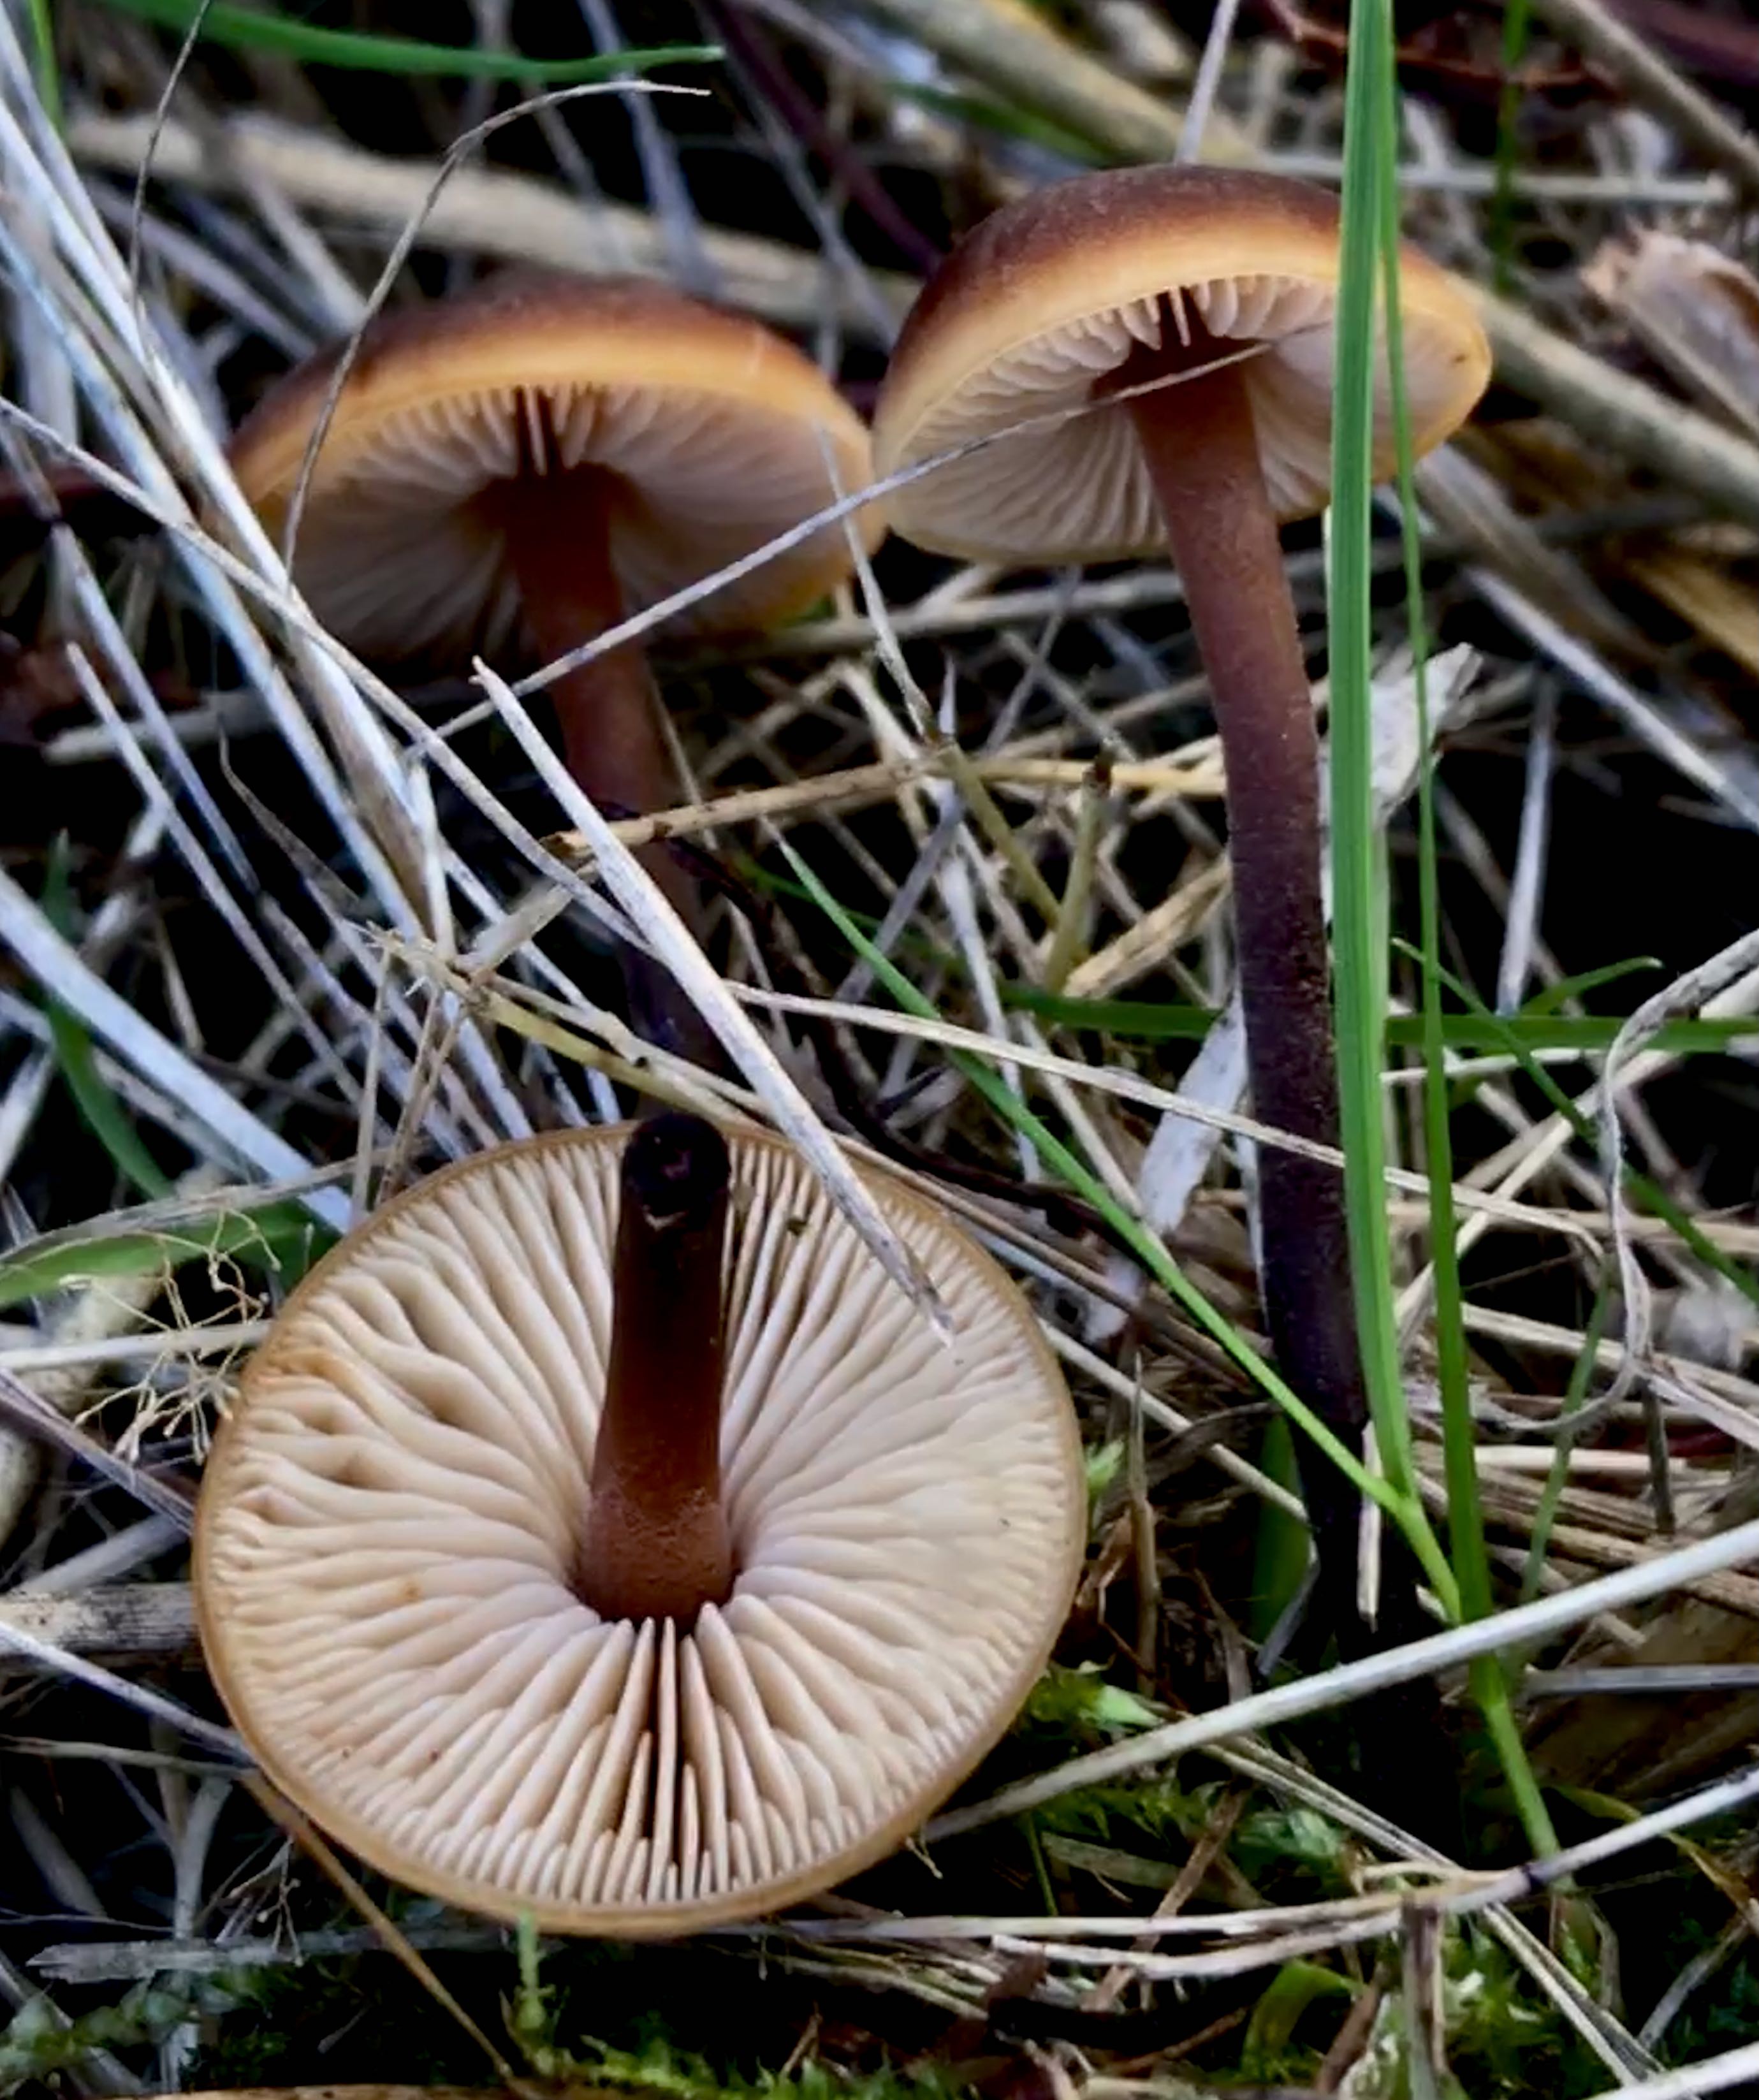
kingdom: Fungi
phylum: Basidiomycota
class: Agaricomycetes
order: Agaricales
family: Macrocystidiaceae
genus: Macrocystidia
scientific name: Macrocystidia cucumis
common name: agurkehat
